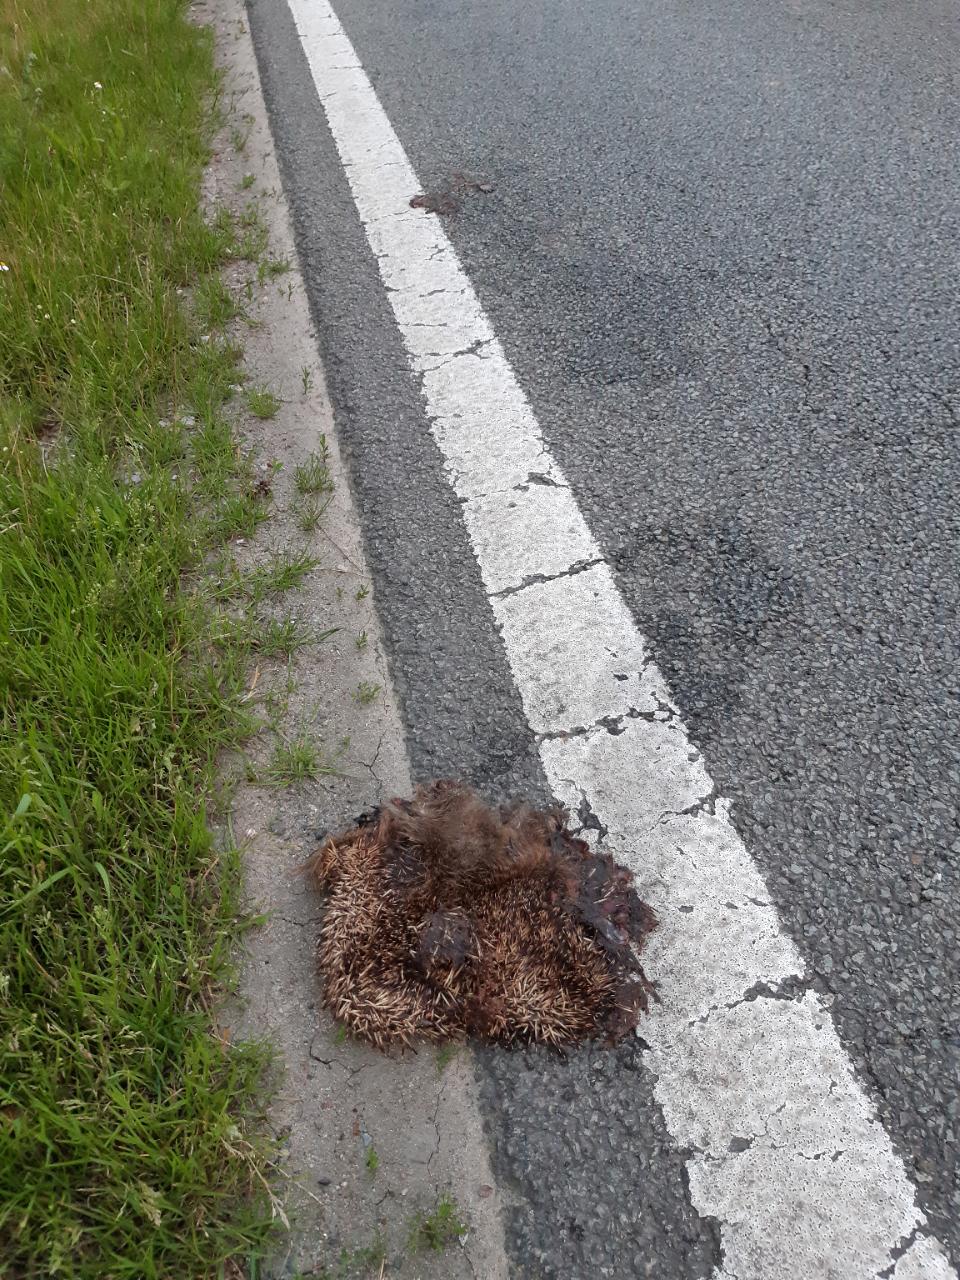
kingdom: Animalia
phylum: Chordata
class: Mammalia
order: Erinaceomorpha
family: Erinaceidae
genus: Erinaceus
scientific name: Erinaceus
